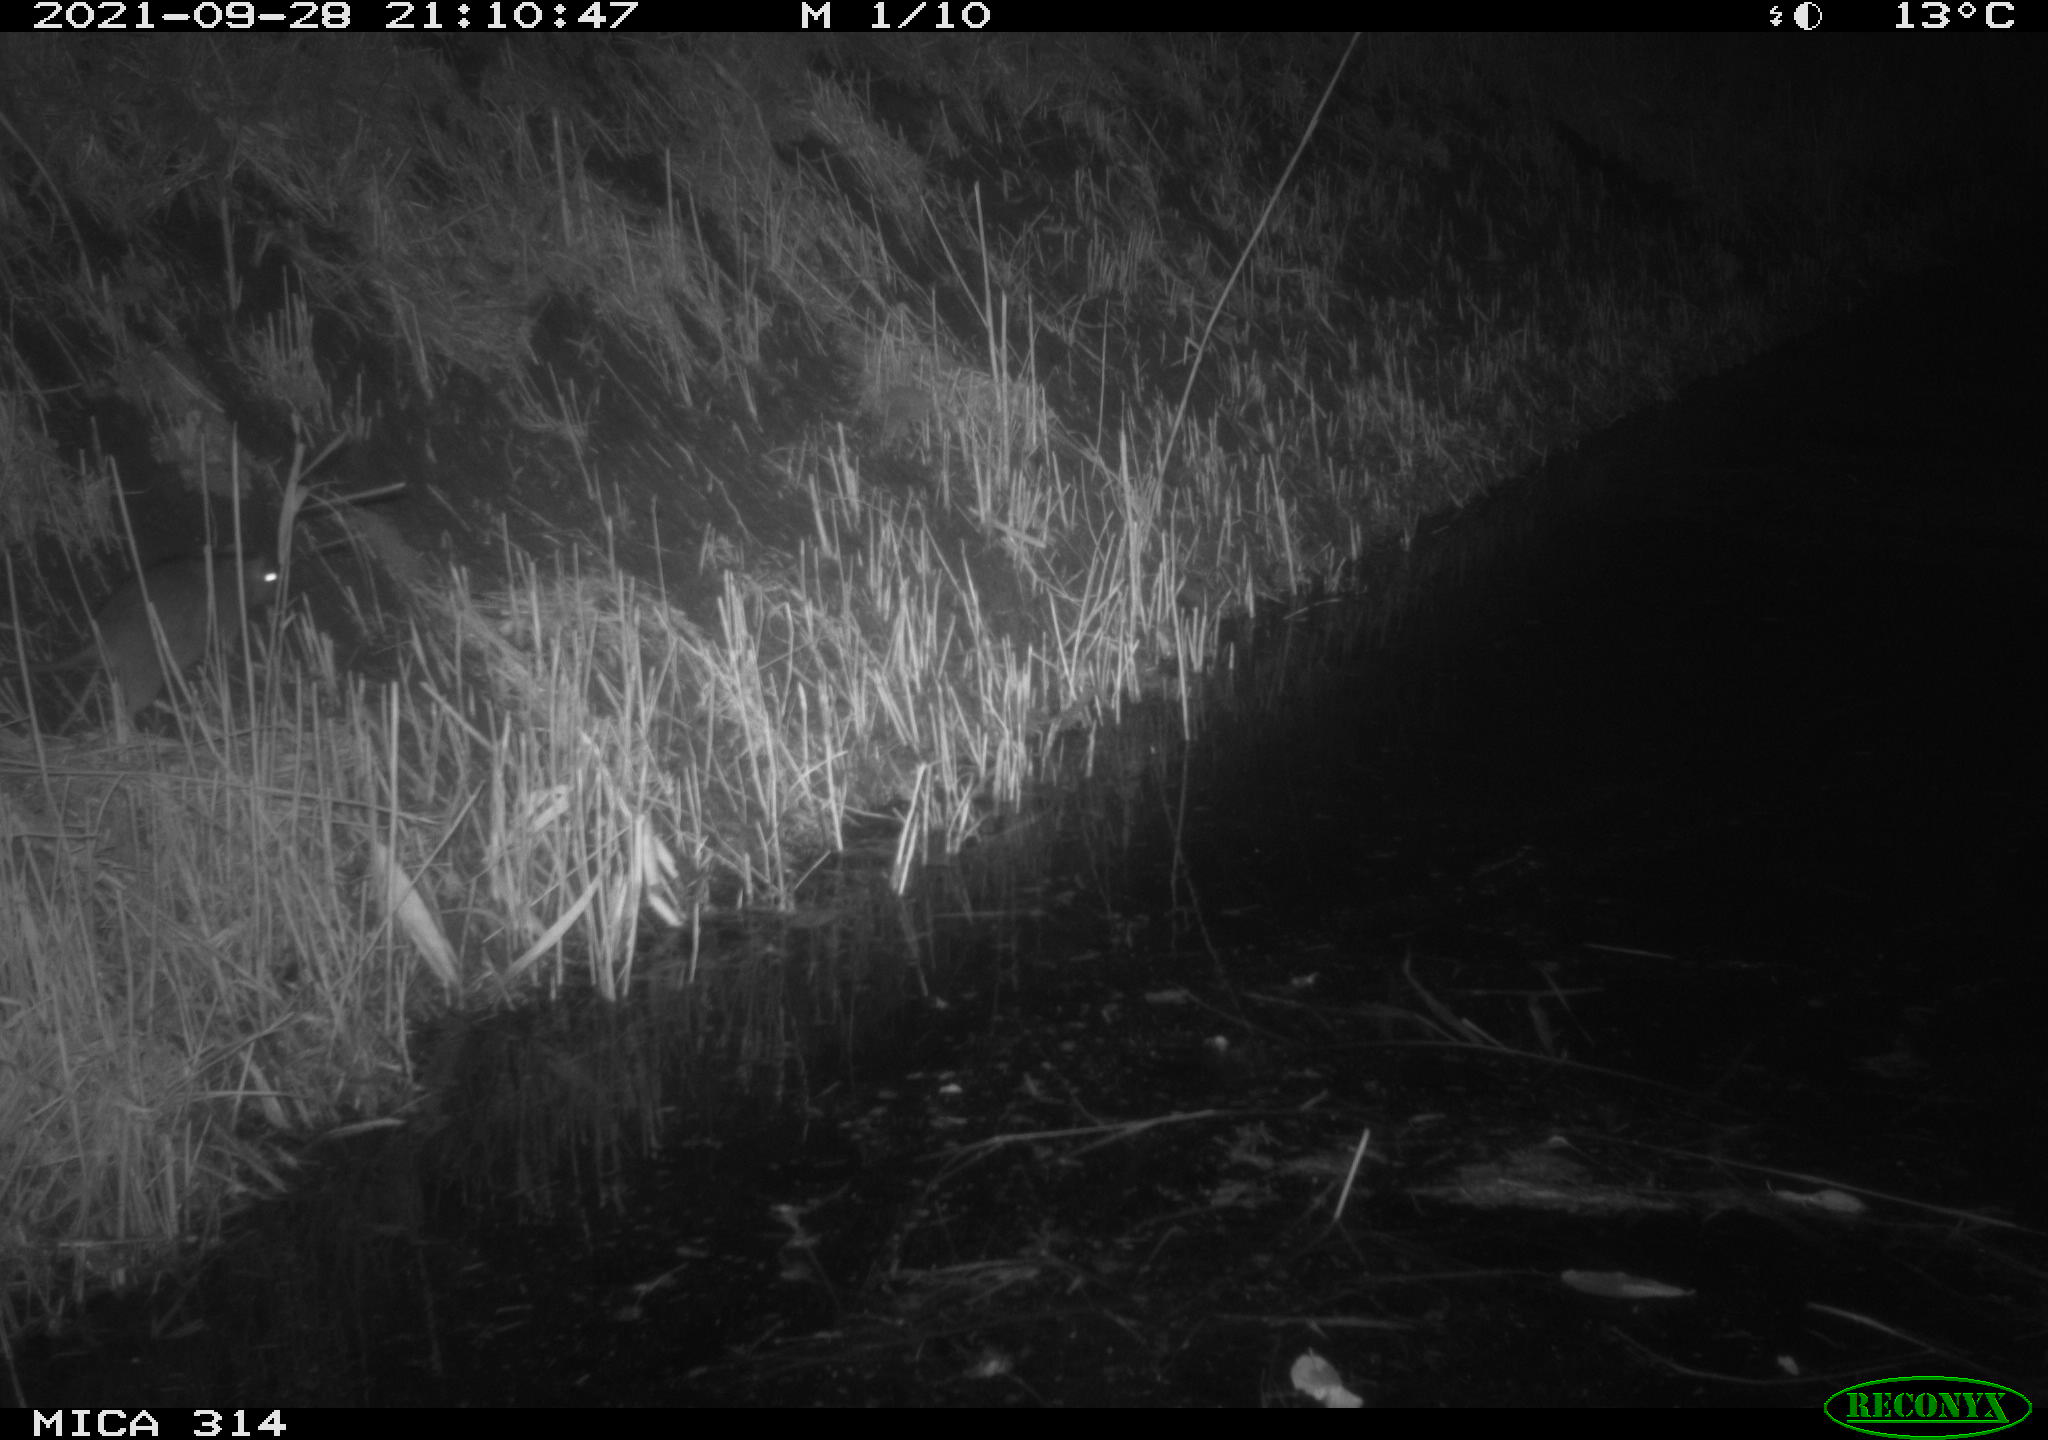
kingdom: Animalia
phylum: Chordata
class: Mammalia
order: Rodentia
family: Muridae
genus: Rattus
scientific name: Rattus norvegicus
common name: Brown rat
